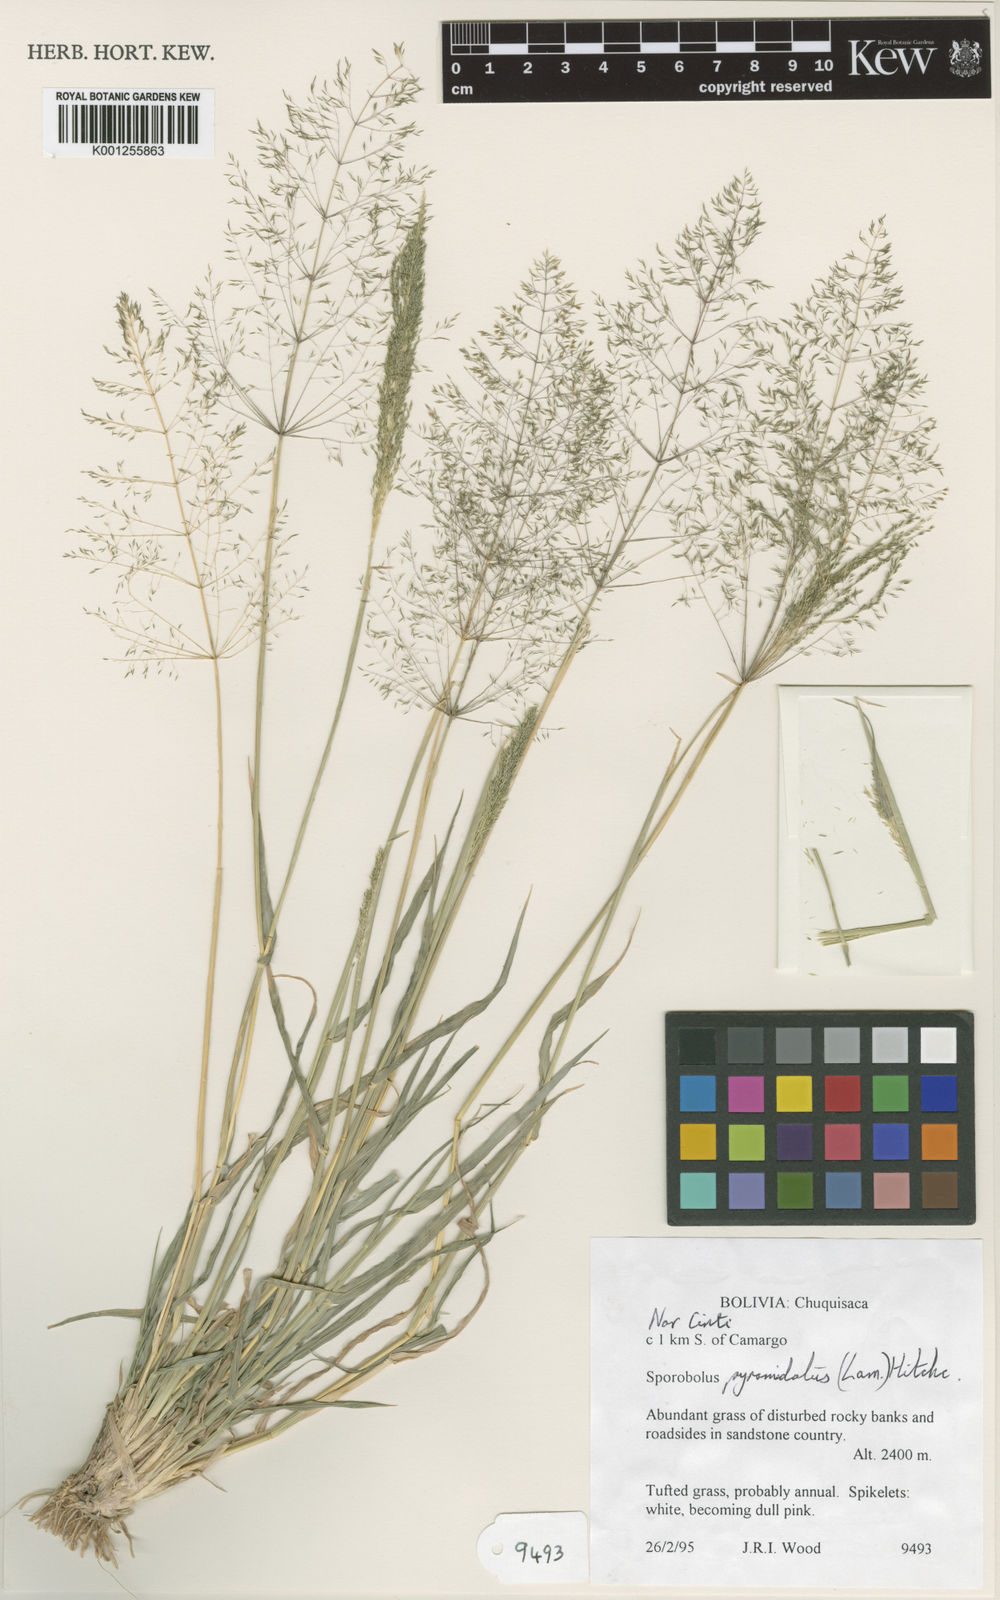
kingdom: Plantae
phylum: Tracheophyta
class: Liliopsida
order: Poales
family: Poaceae
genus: Sporobolus
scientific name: Sporobolus pyramidatus
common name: Whorled dropseed
